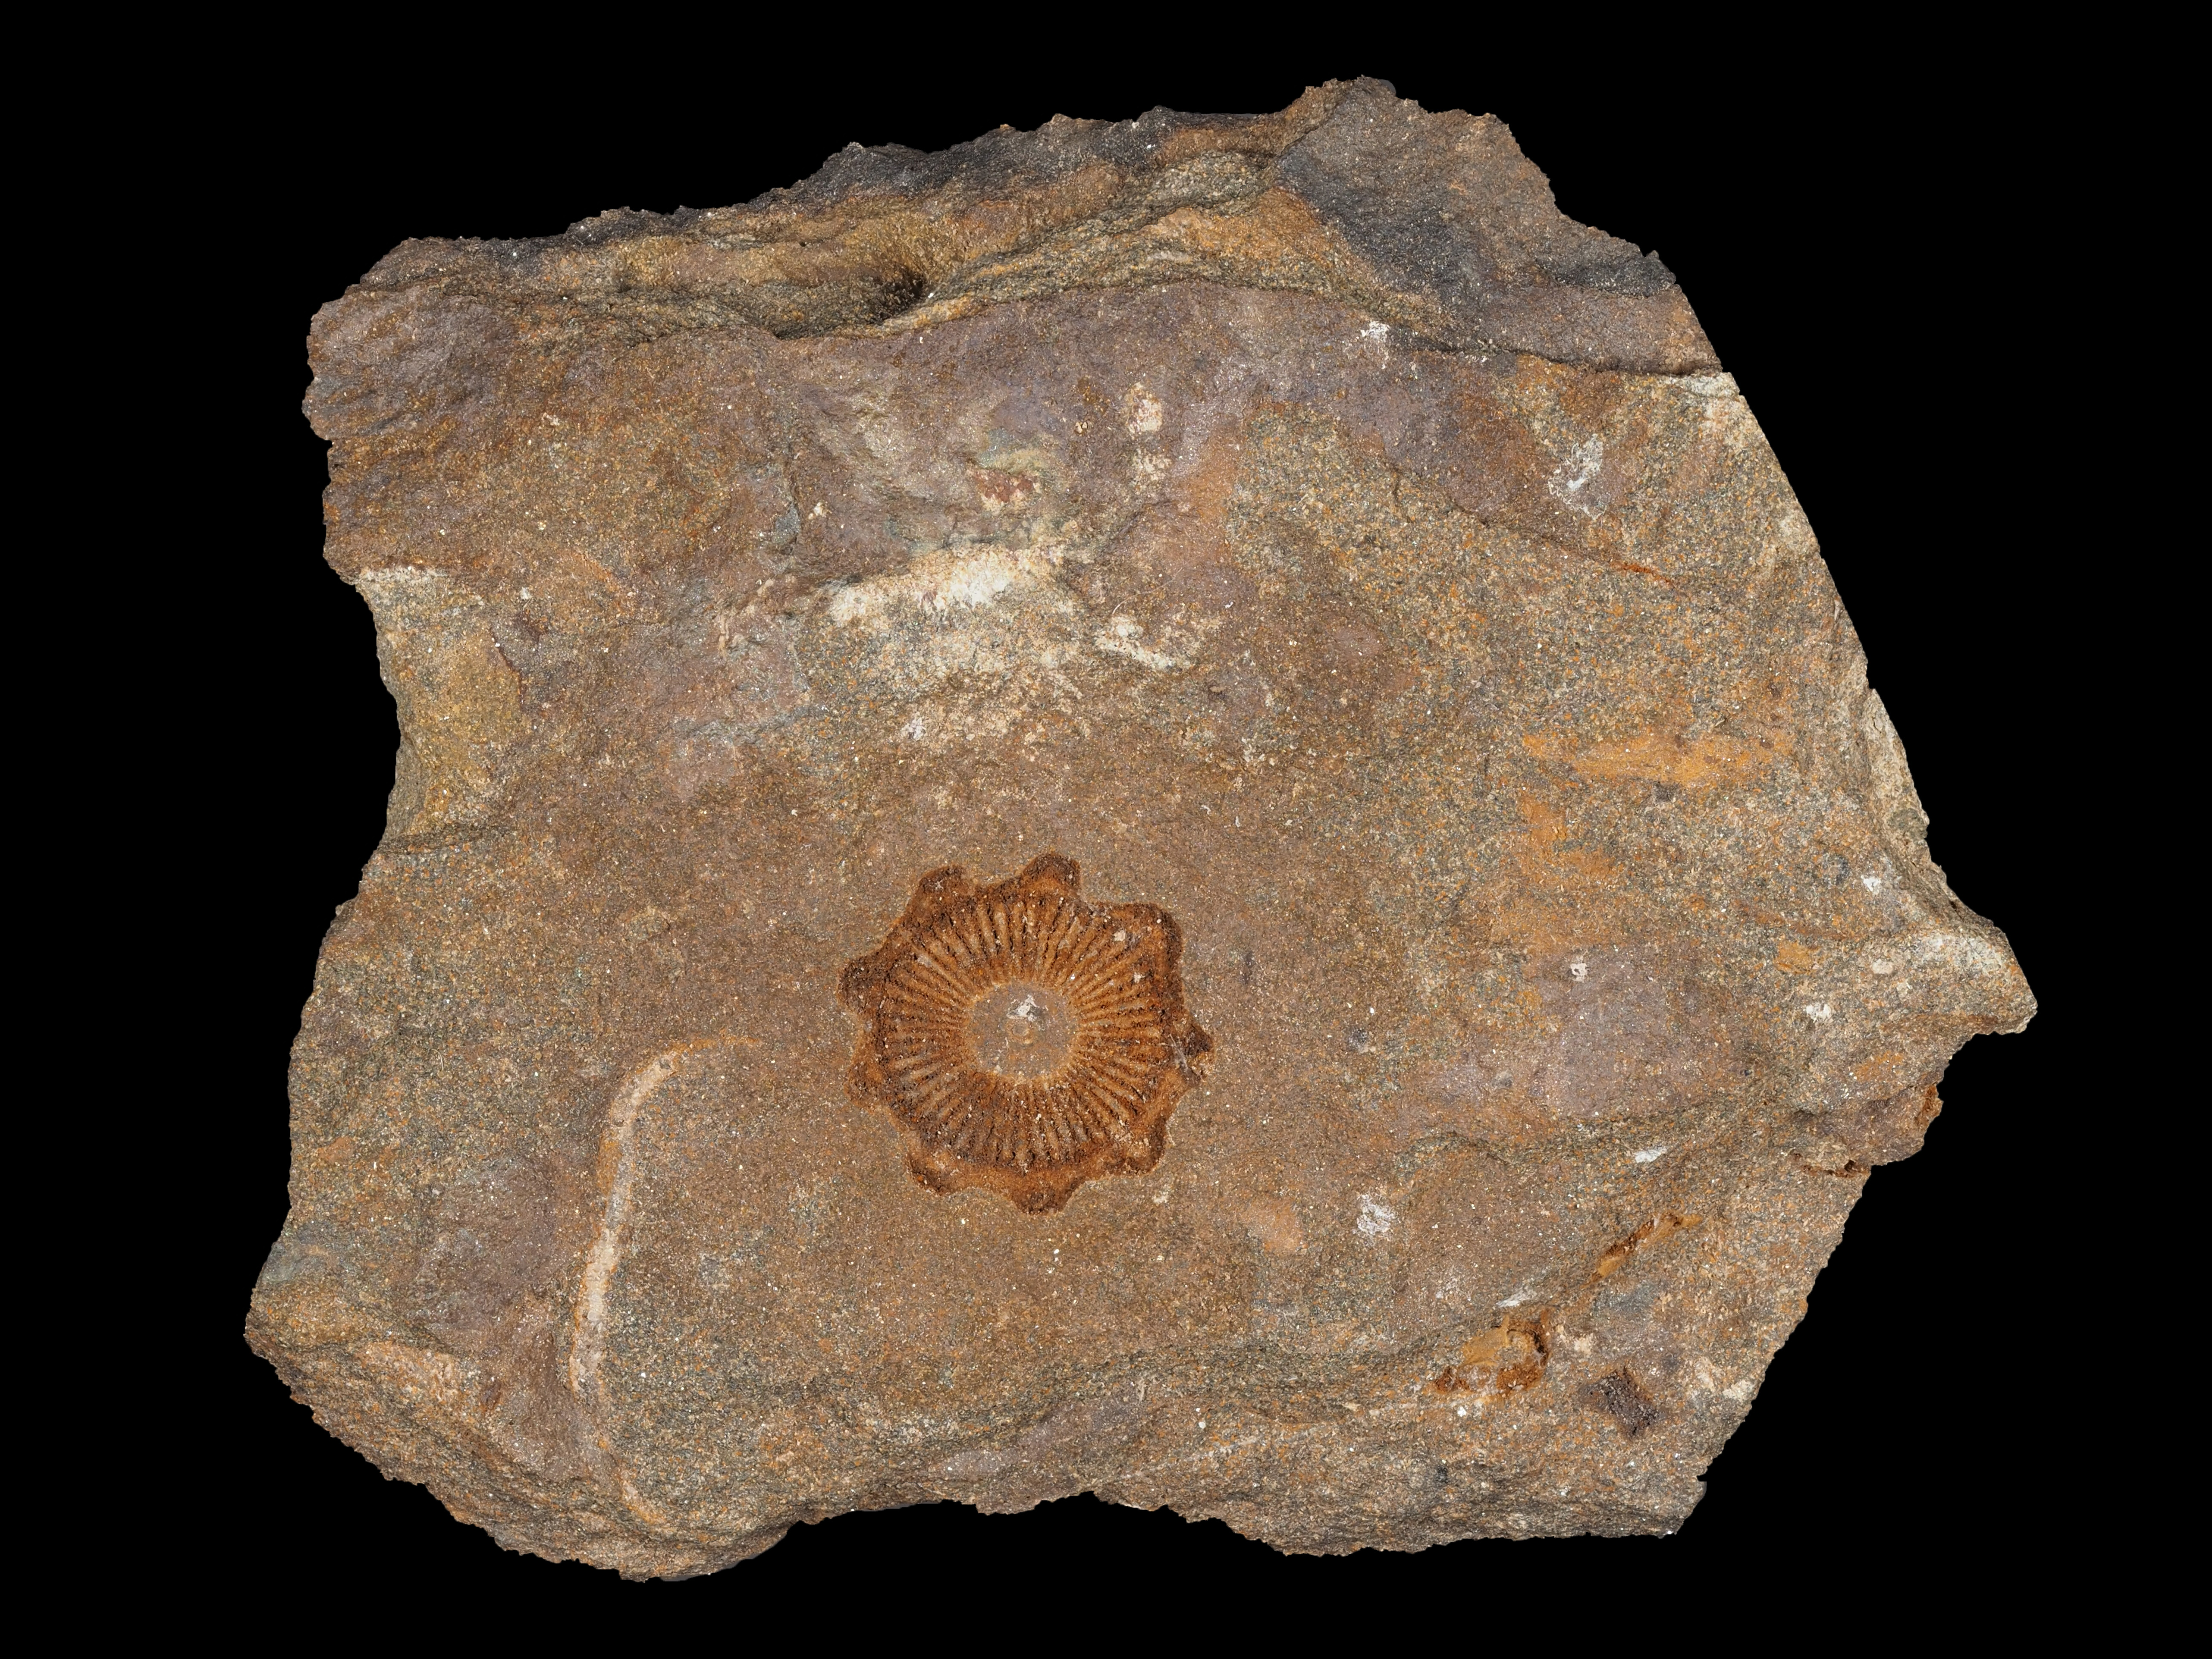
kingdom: Animalia
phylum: Echinodermata
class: Crinoidea
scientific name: Crinoidea
